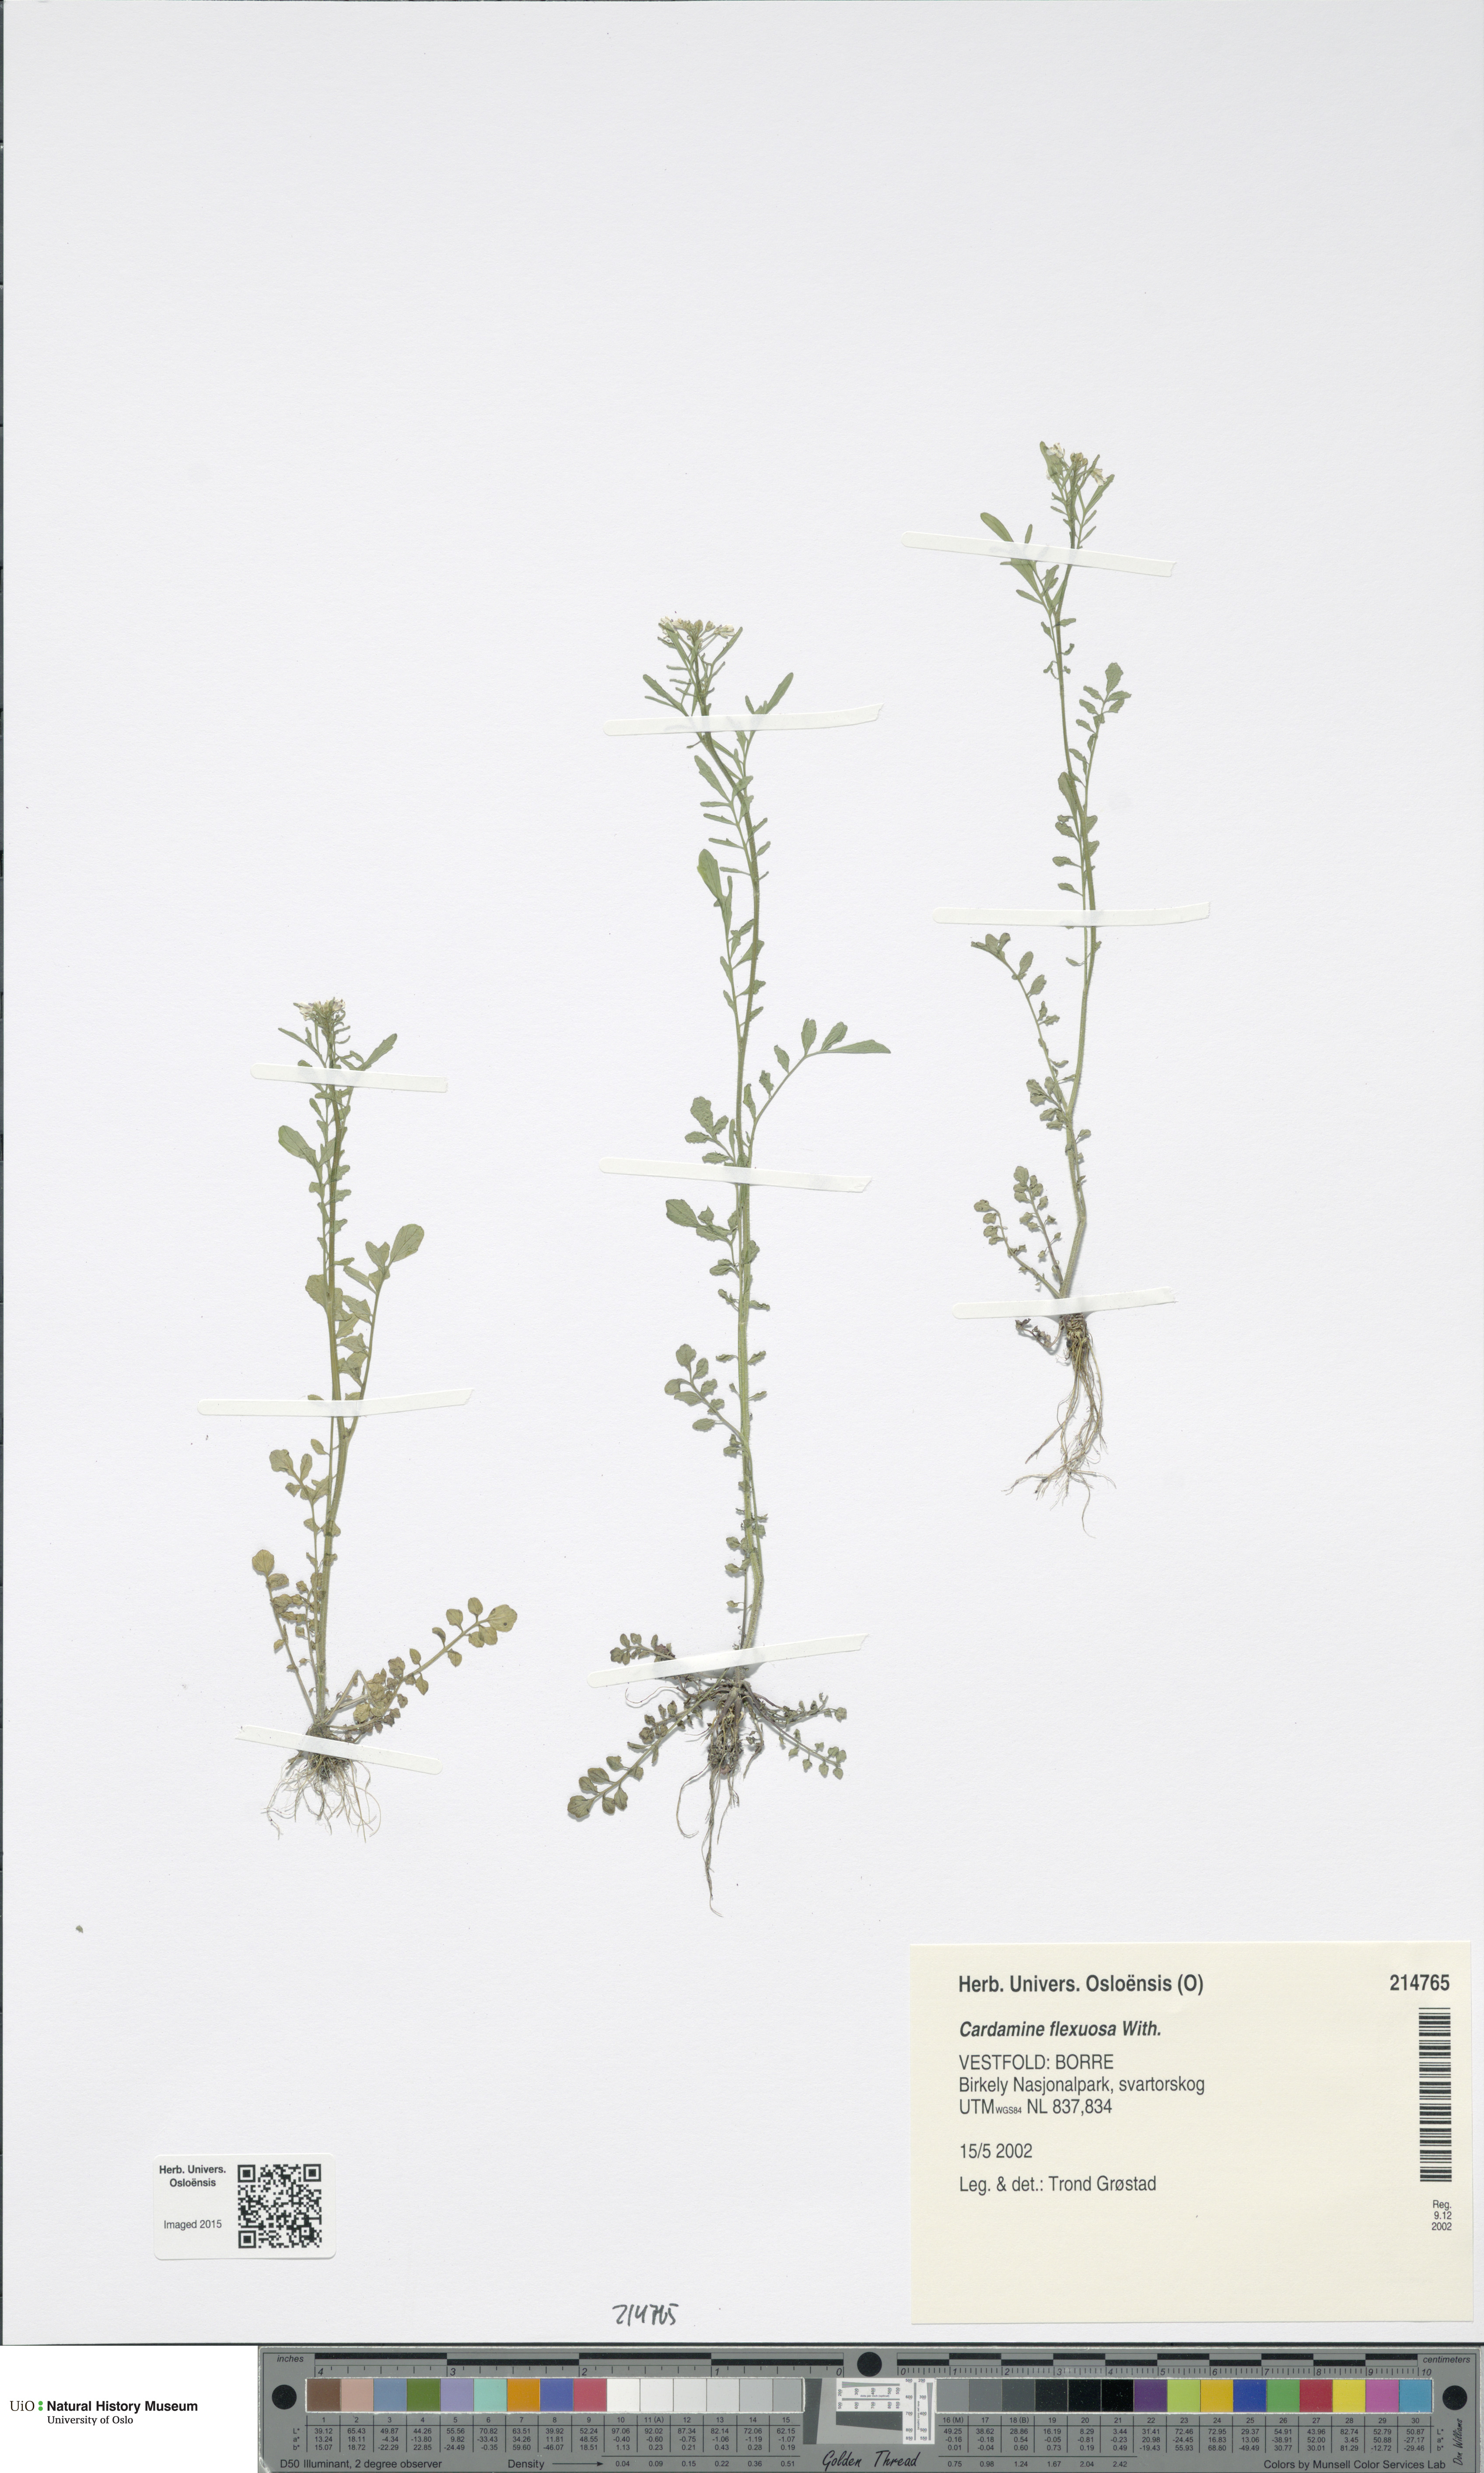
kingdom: Plantae
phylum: Tracheophyta
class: Magnoliopsida
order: Brassicales
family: Brassicaceae
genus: Cardamine
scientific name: Cardamine flexuosa
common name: Woodland bittercress
